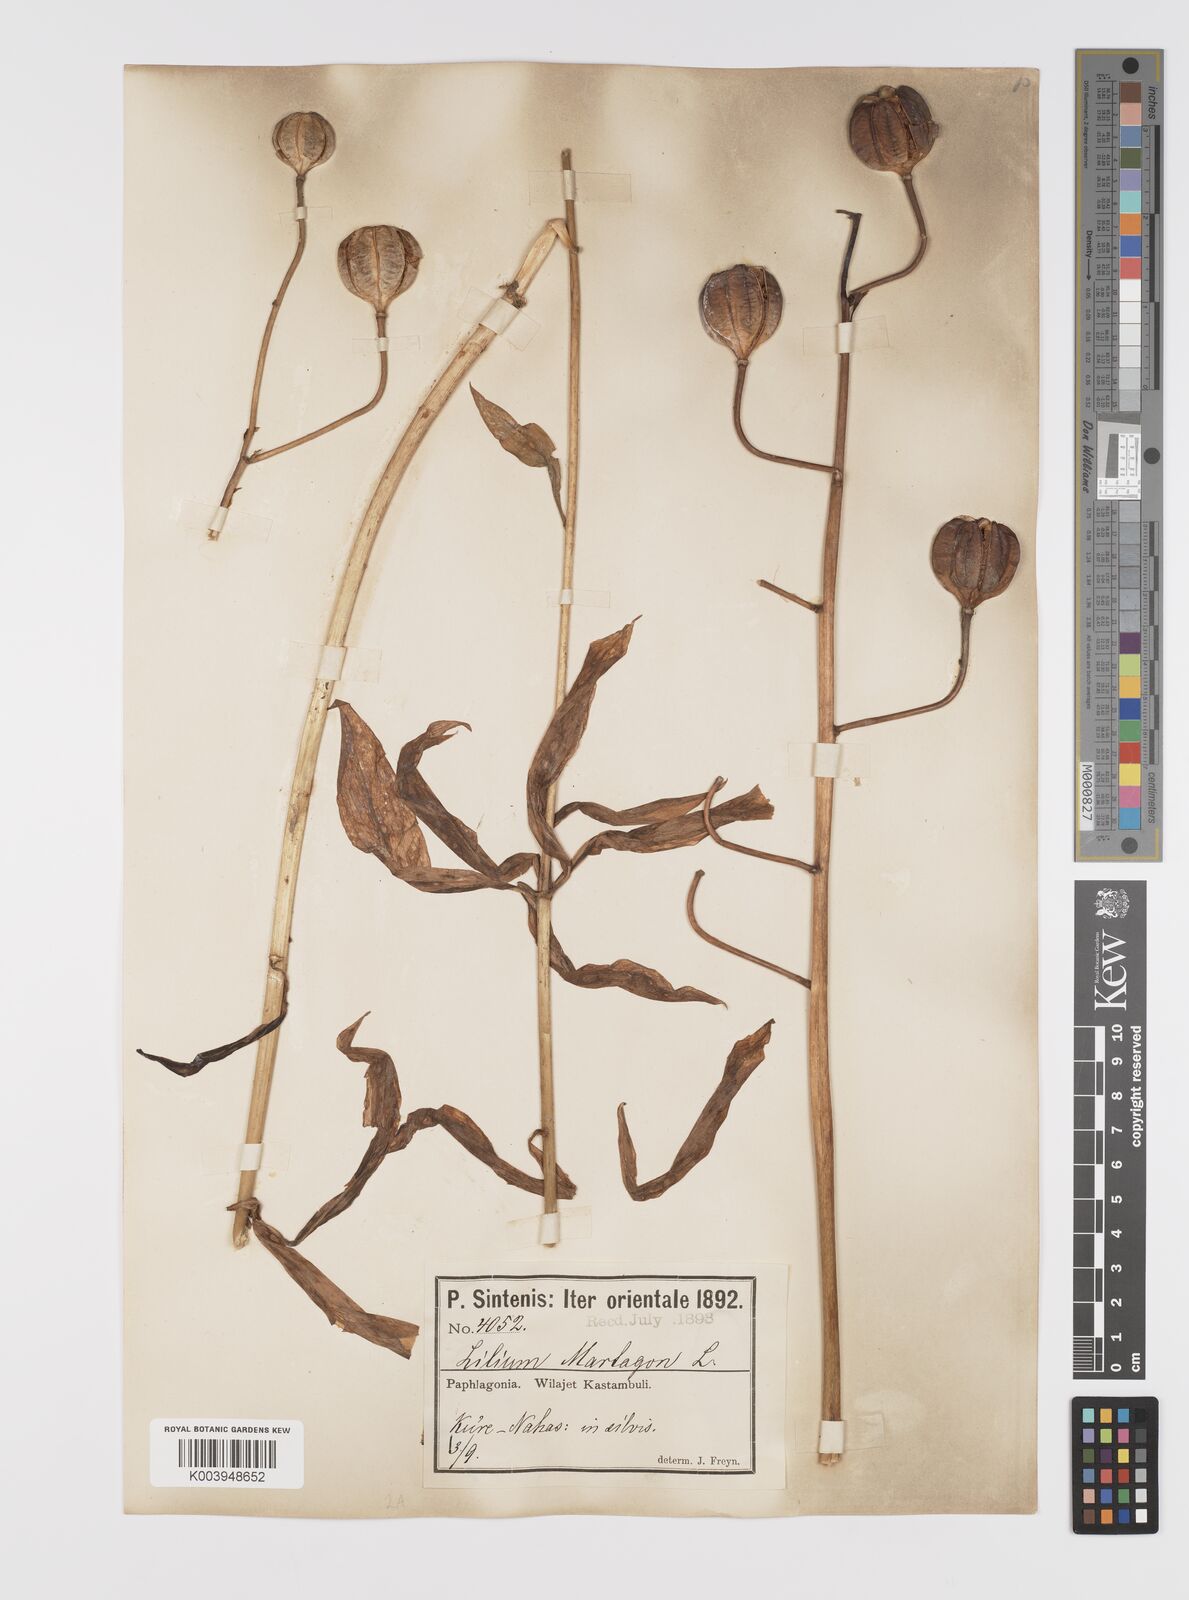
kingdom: Plantae
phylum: Tracheophyta
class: Liliopsida
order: Liliales
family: Liliaceae
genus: Lilium
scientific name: Lilium martagon
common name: Martagon lily
